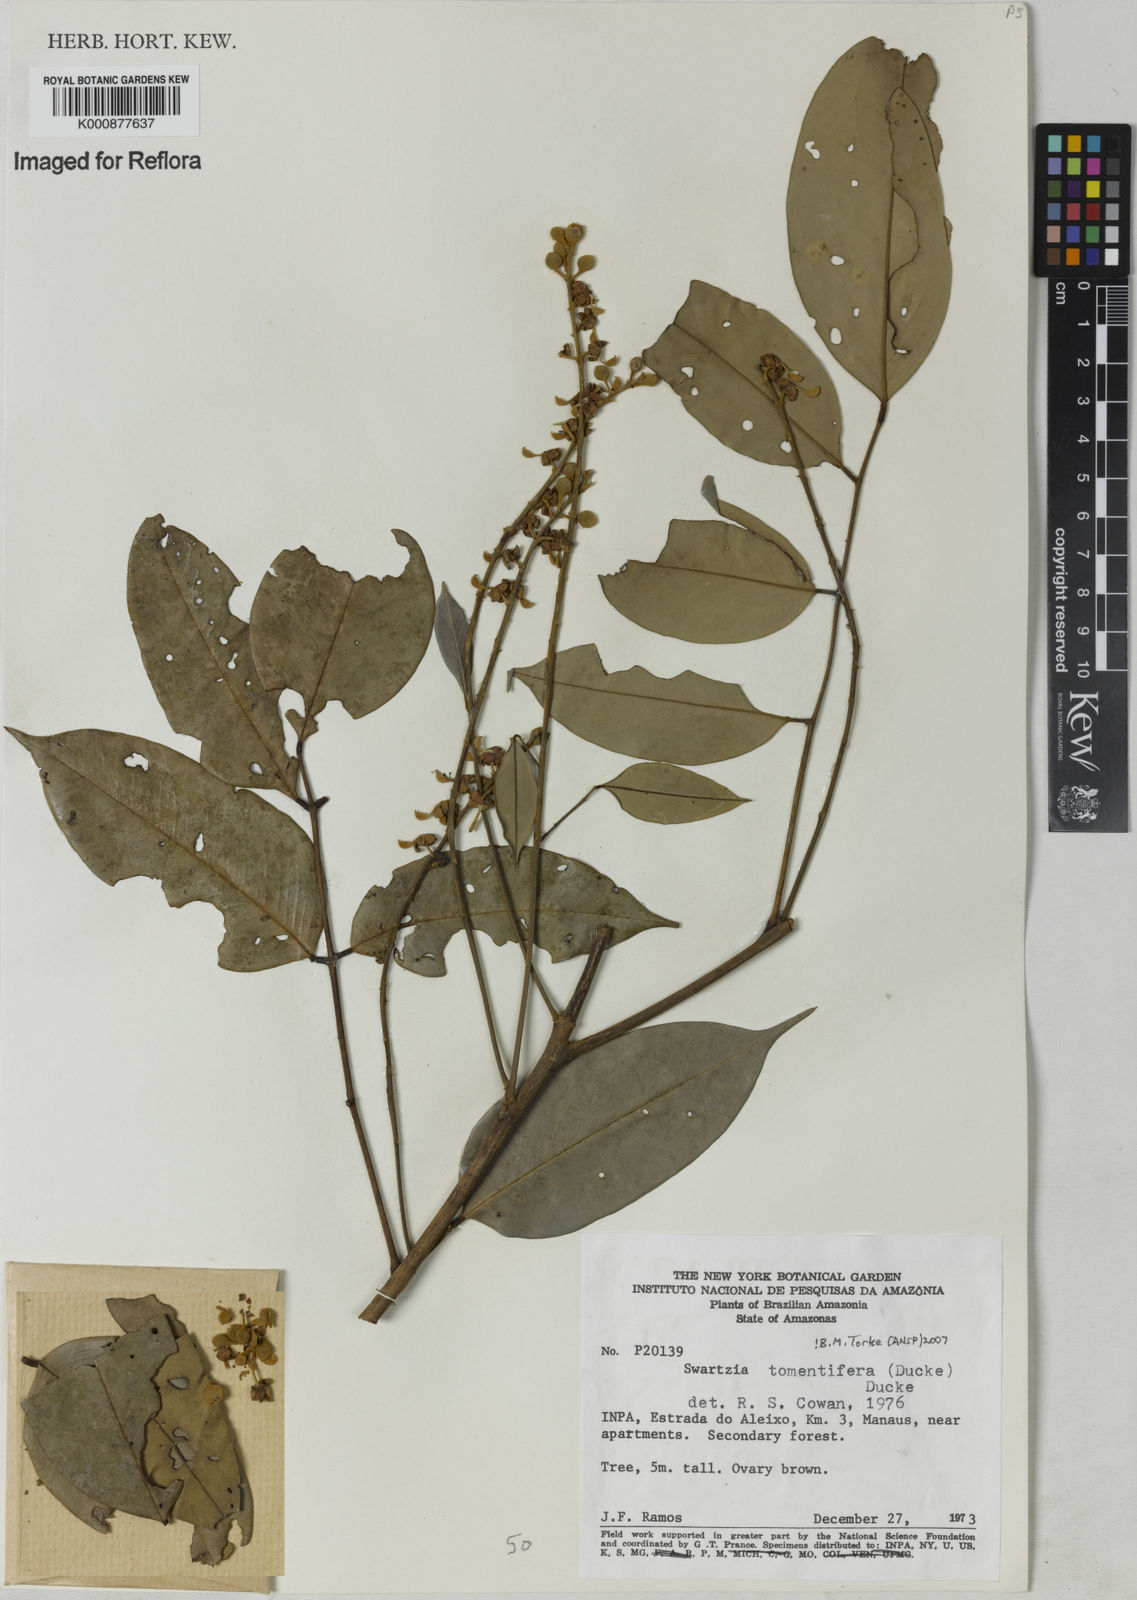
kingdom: Plantae
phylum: Tracheophyta
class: Magnoliopsida
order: Fabales
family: Fabaceae
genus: Swartzia
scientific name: Swartzia tomentifera
